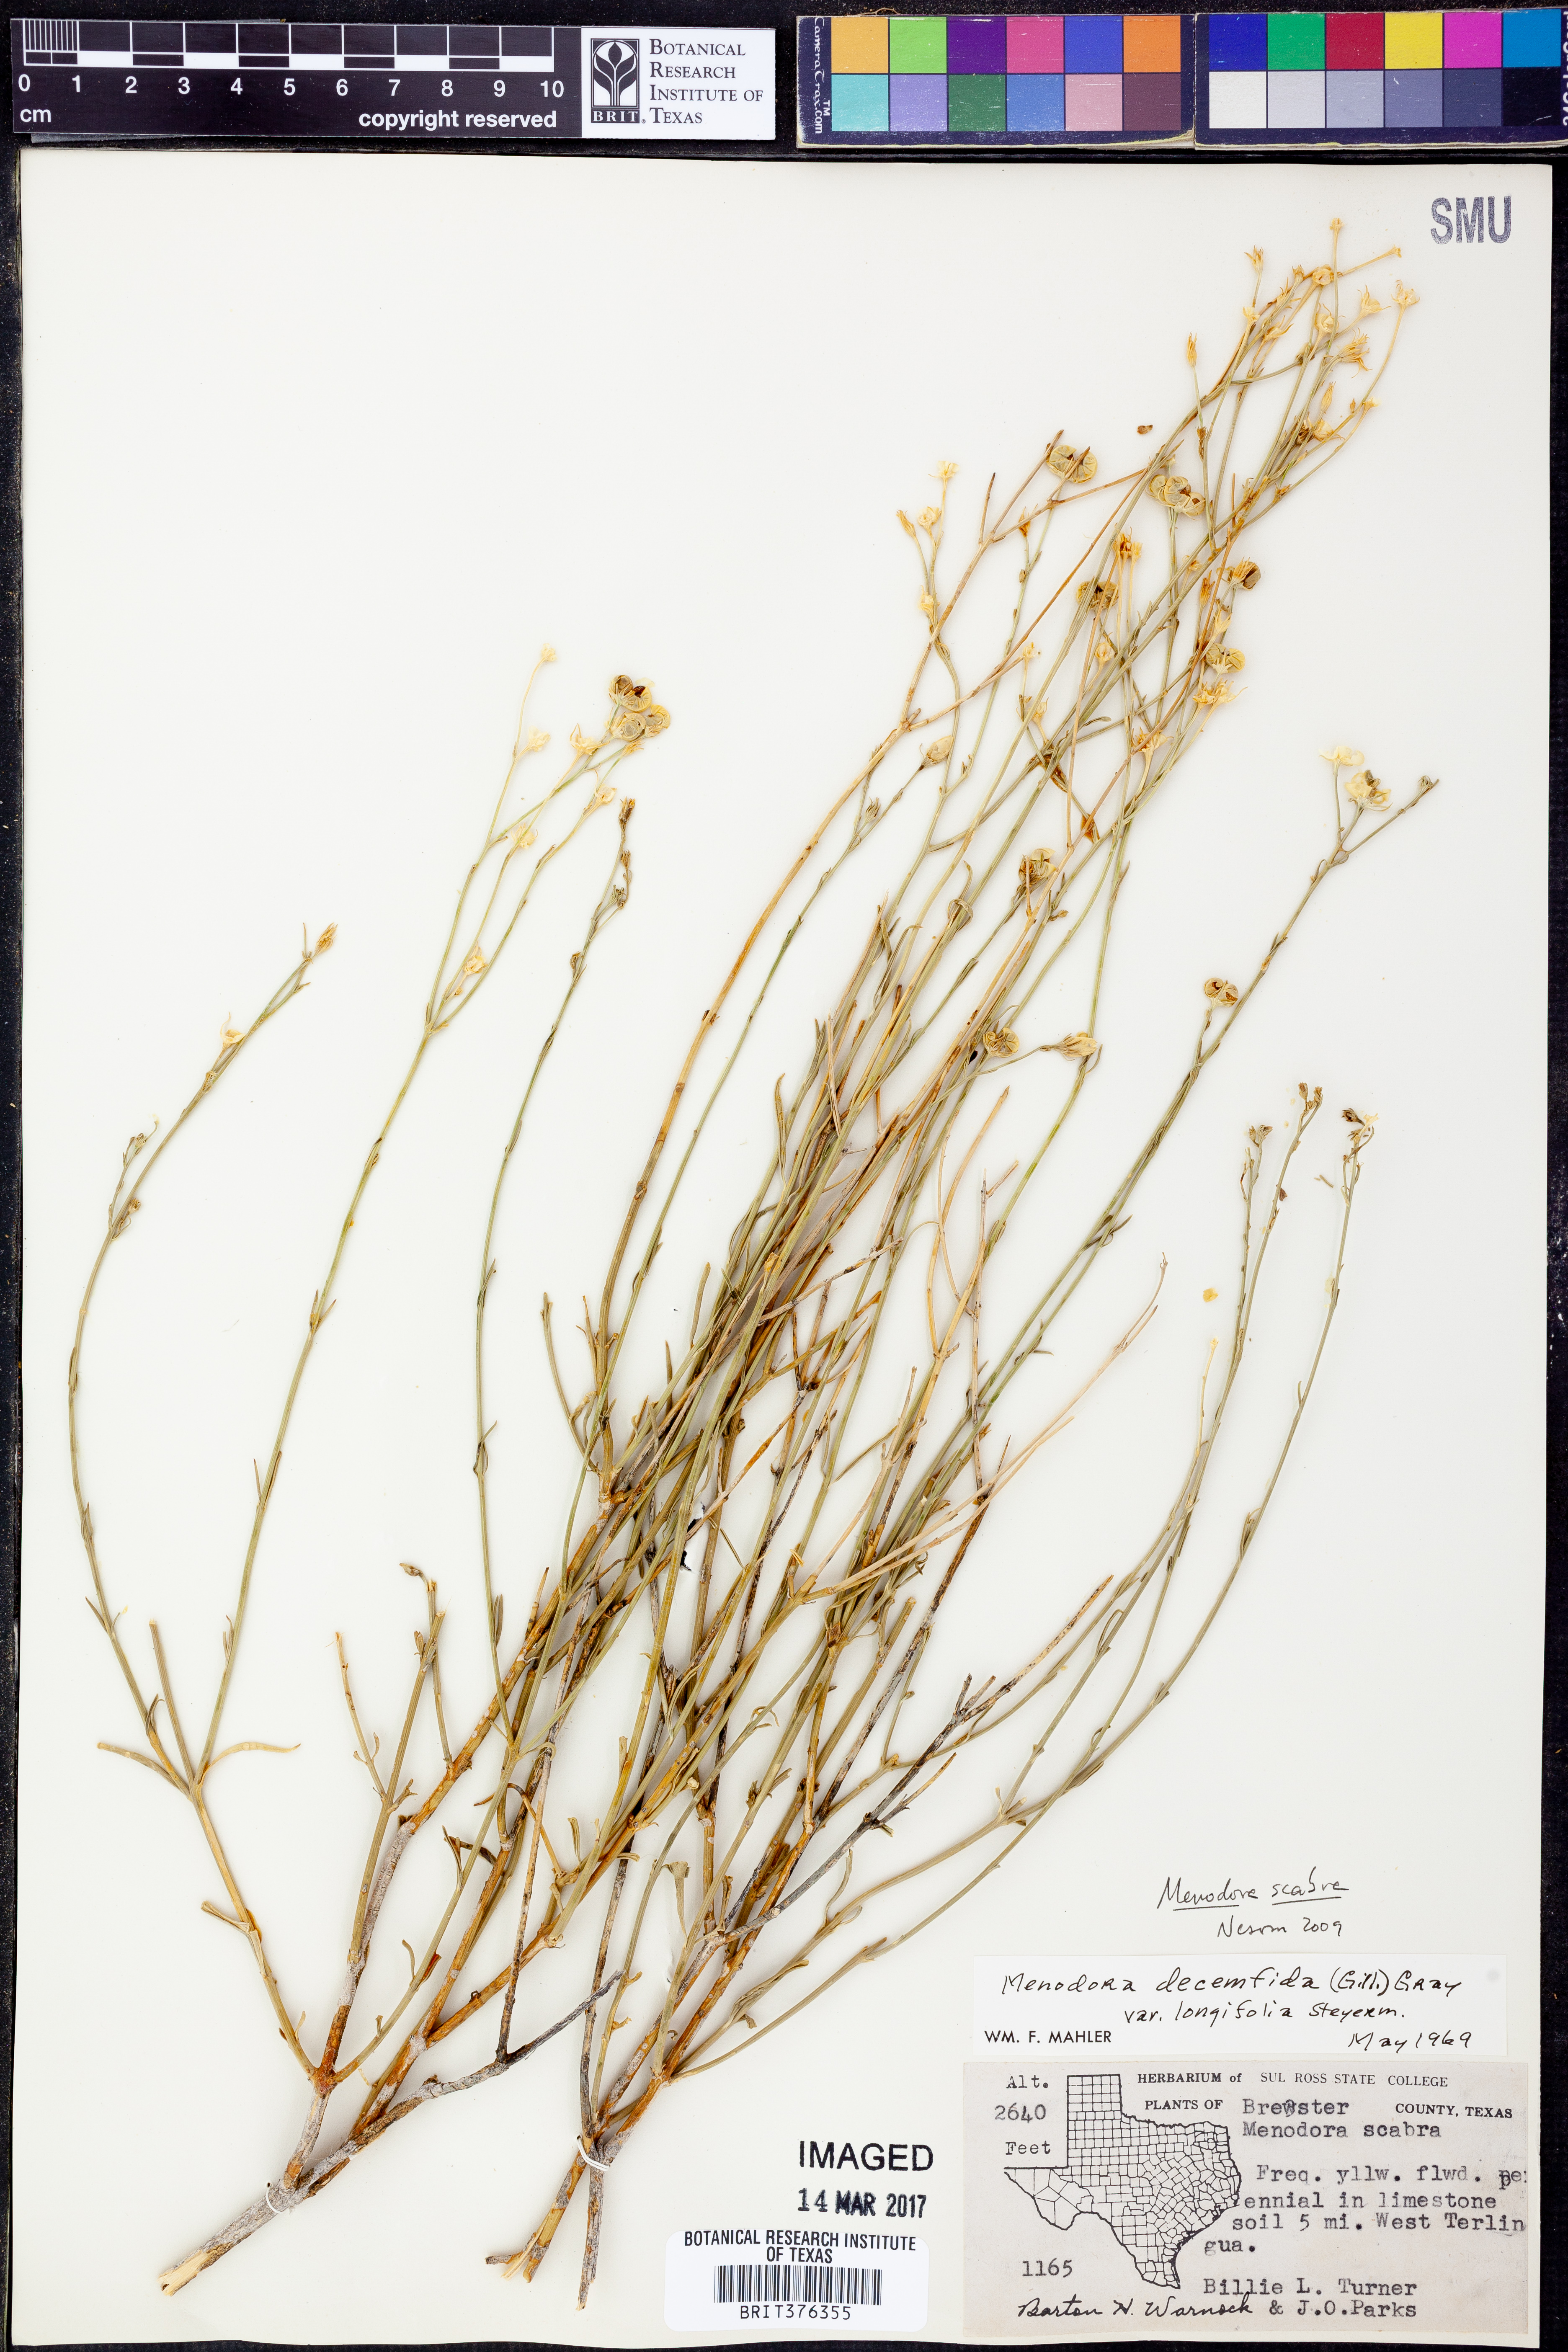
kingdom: Plantae
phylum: Tracheophyta
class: Magnoliopsida
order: Lamiales
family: Oleaceae
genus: Menodora
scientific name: Menodora scabra
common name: Rough menodora
